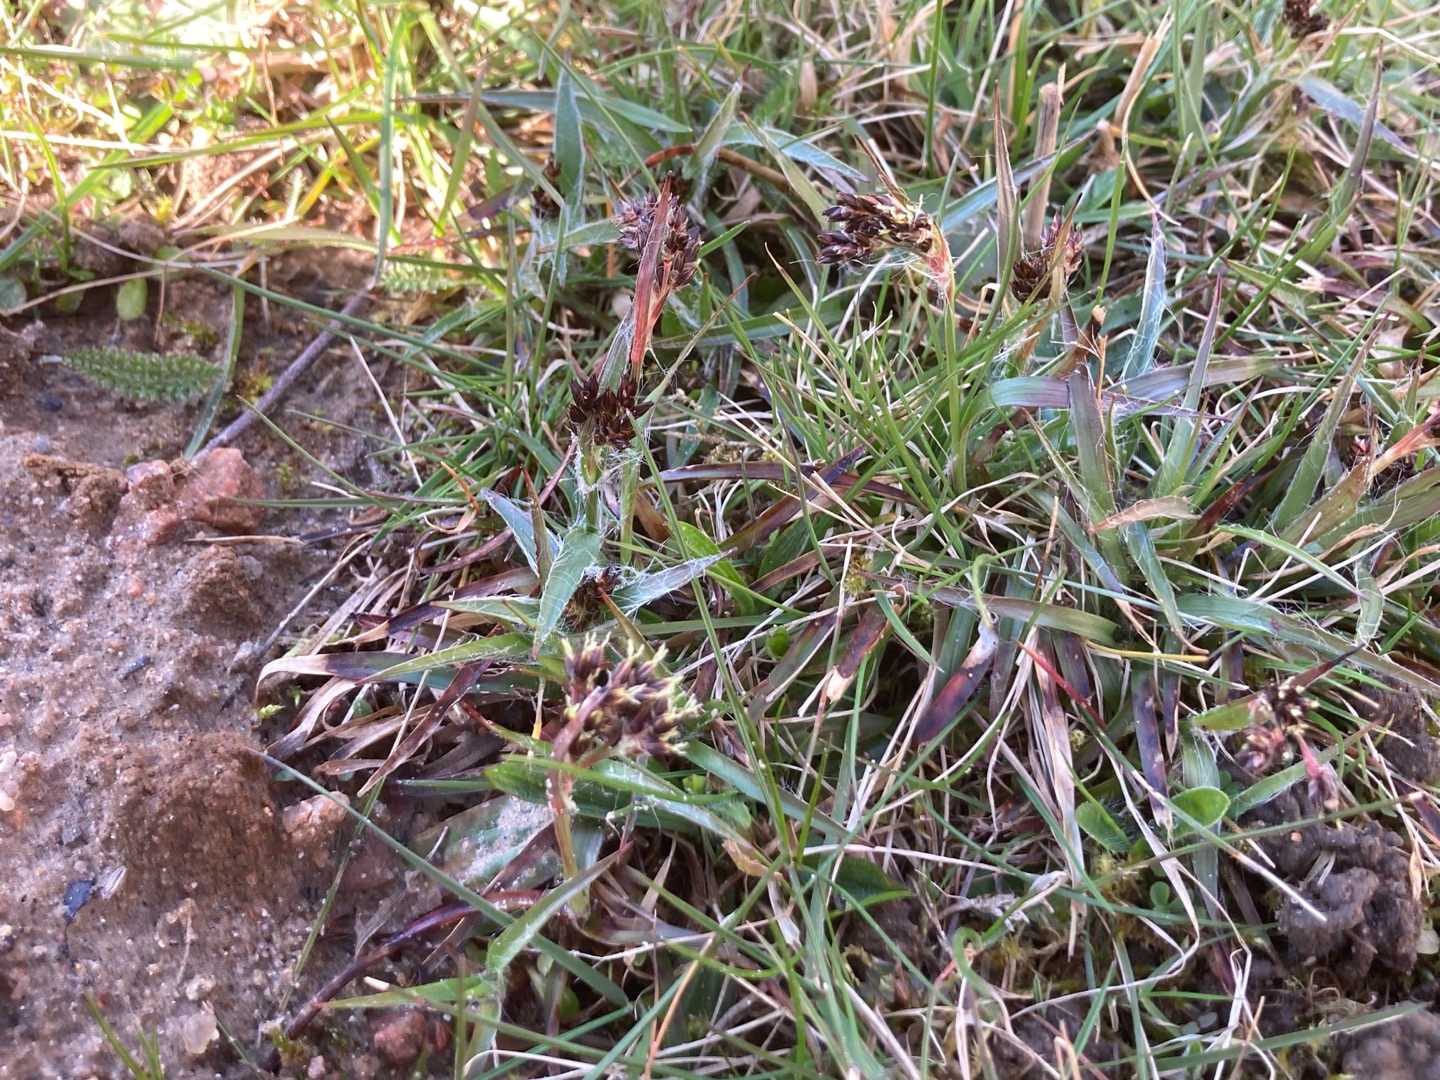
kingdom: Plantae
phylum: Tracheophyta
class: Liliopsida
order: Poales
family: Juncaceae
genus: Luzula
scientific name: Luzula campestris
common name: Mark-frytle
